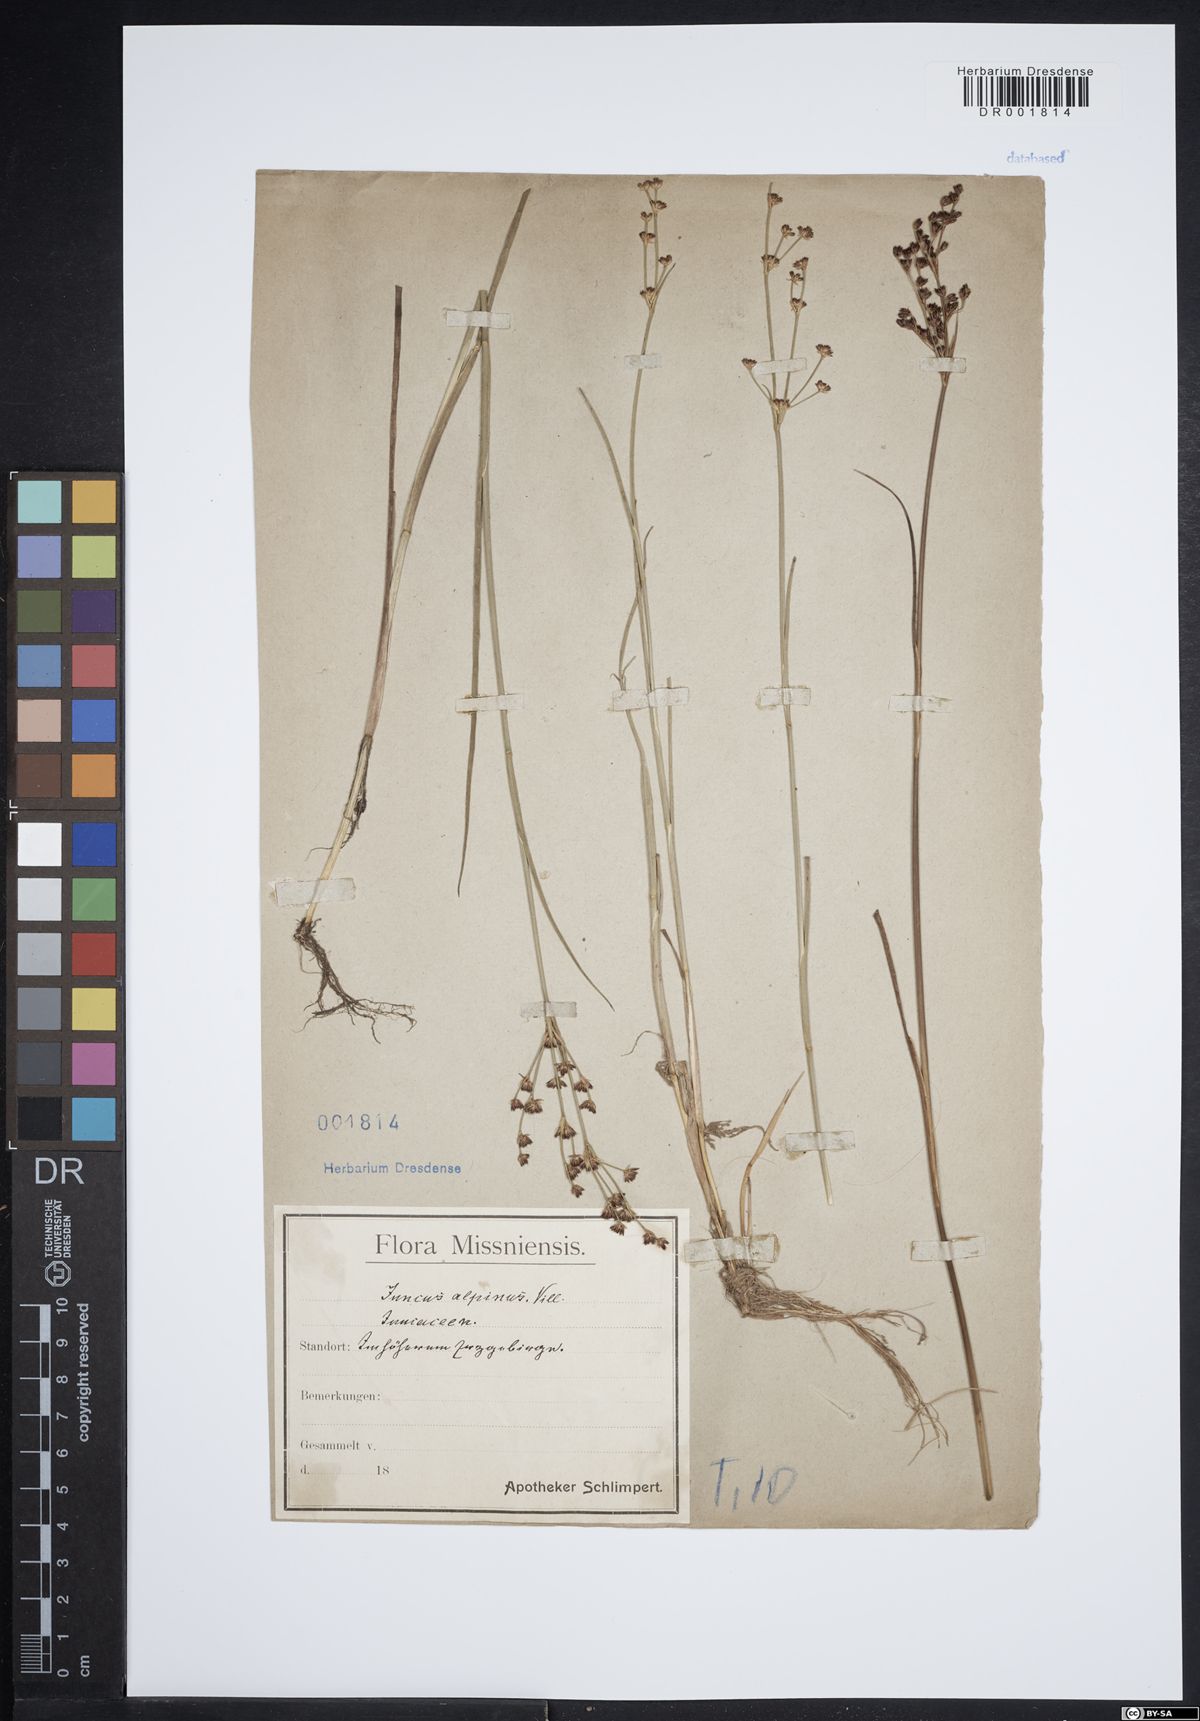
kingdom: Plantae
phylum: Tracheophyta
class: Liliopsida
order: Poales
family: Juncaceae
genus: Juncus
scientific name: Juncus alpinoarticulatus
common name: Alpine rush
